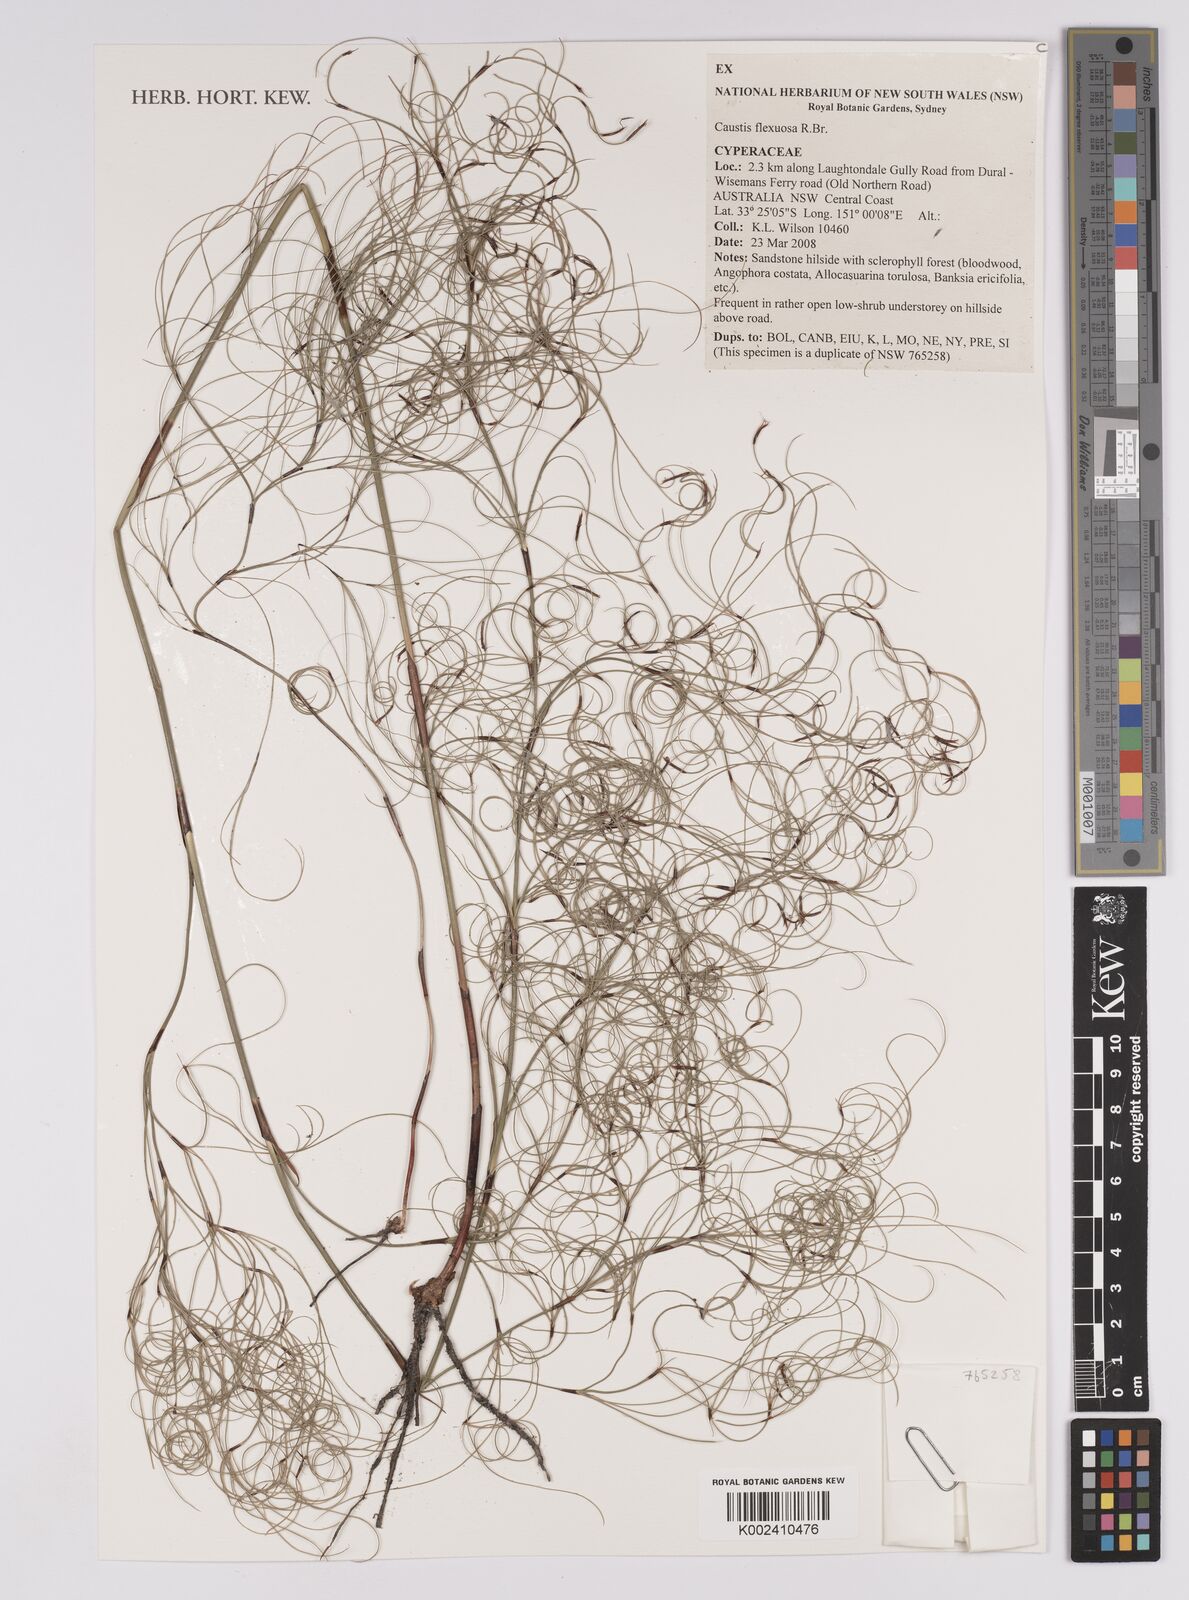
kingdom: Plantae
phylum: Tracheophyta
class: Liliopsida
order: Poales
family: Cyperaceae
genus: Caustis
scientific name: Caustis flexuosa
